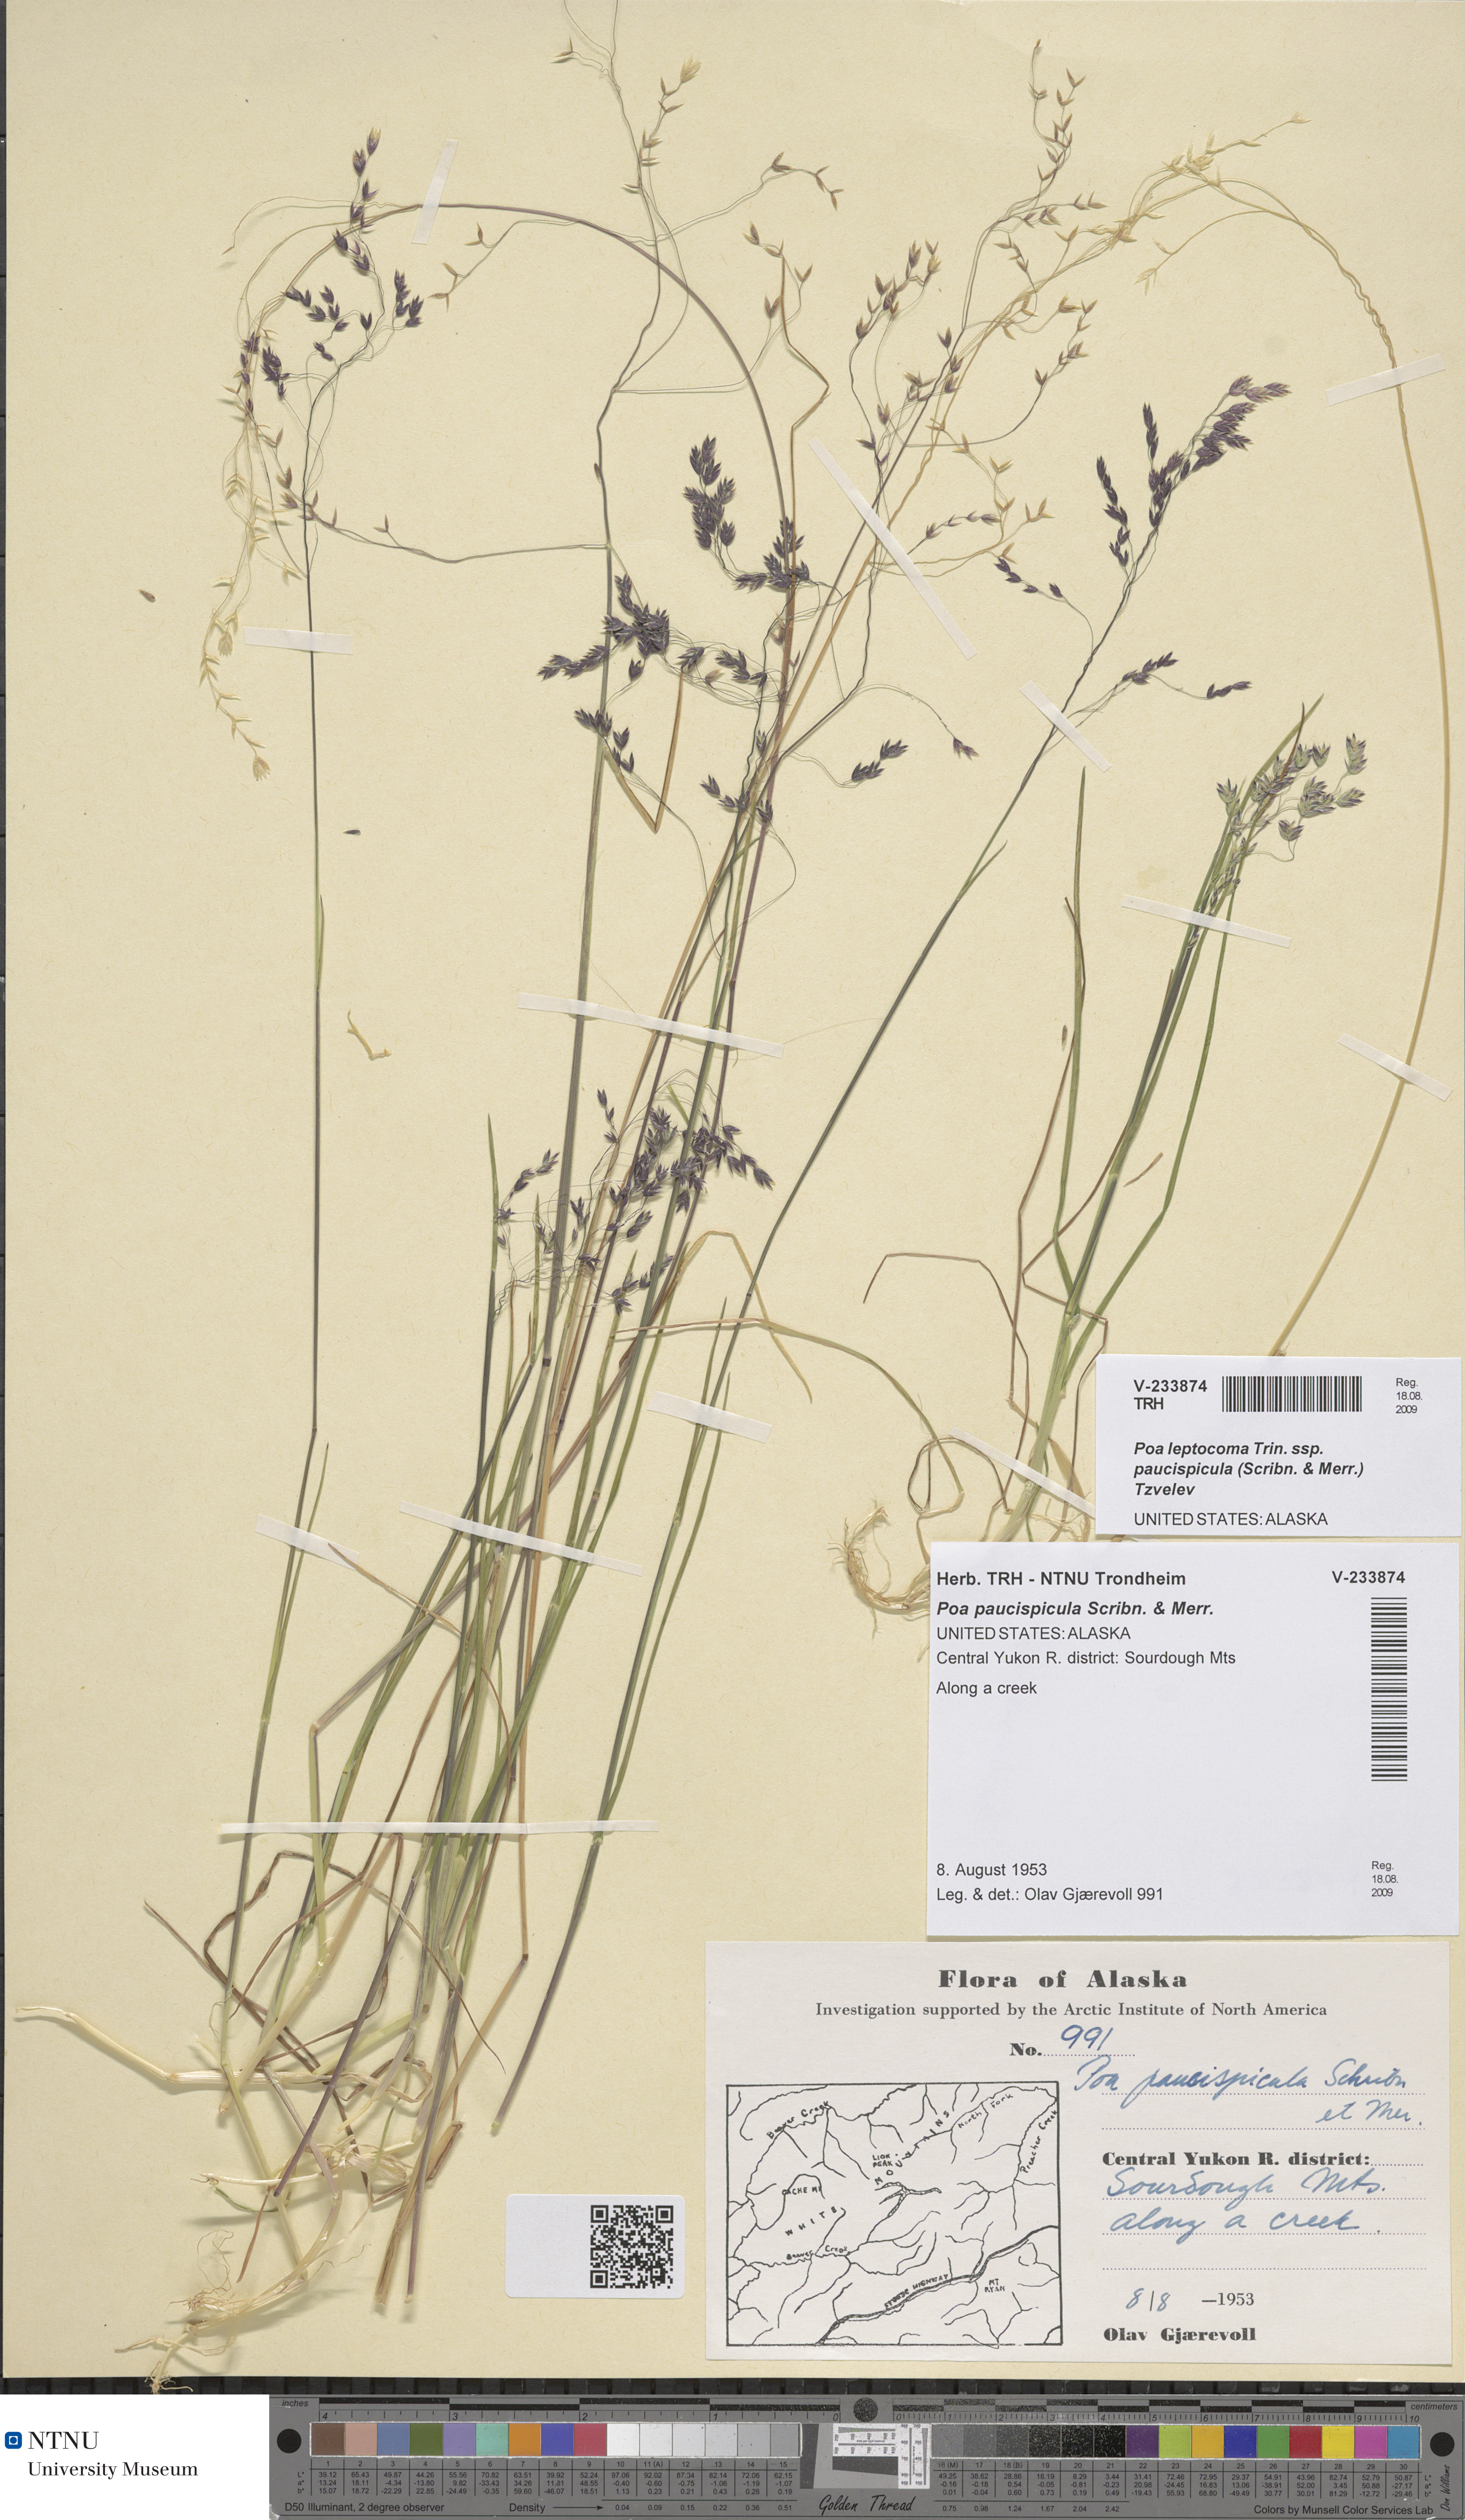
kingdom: Plantae
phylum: Tracheophyta
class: Liliopsida
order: Poales
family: Poaceae
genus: Poa
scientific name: Poa paucispicula
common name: Alaska bluegrass
